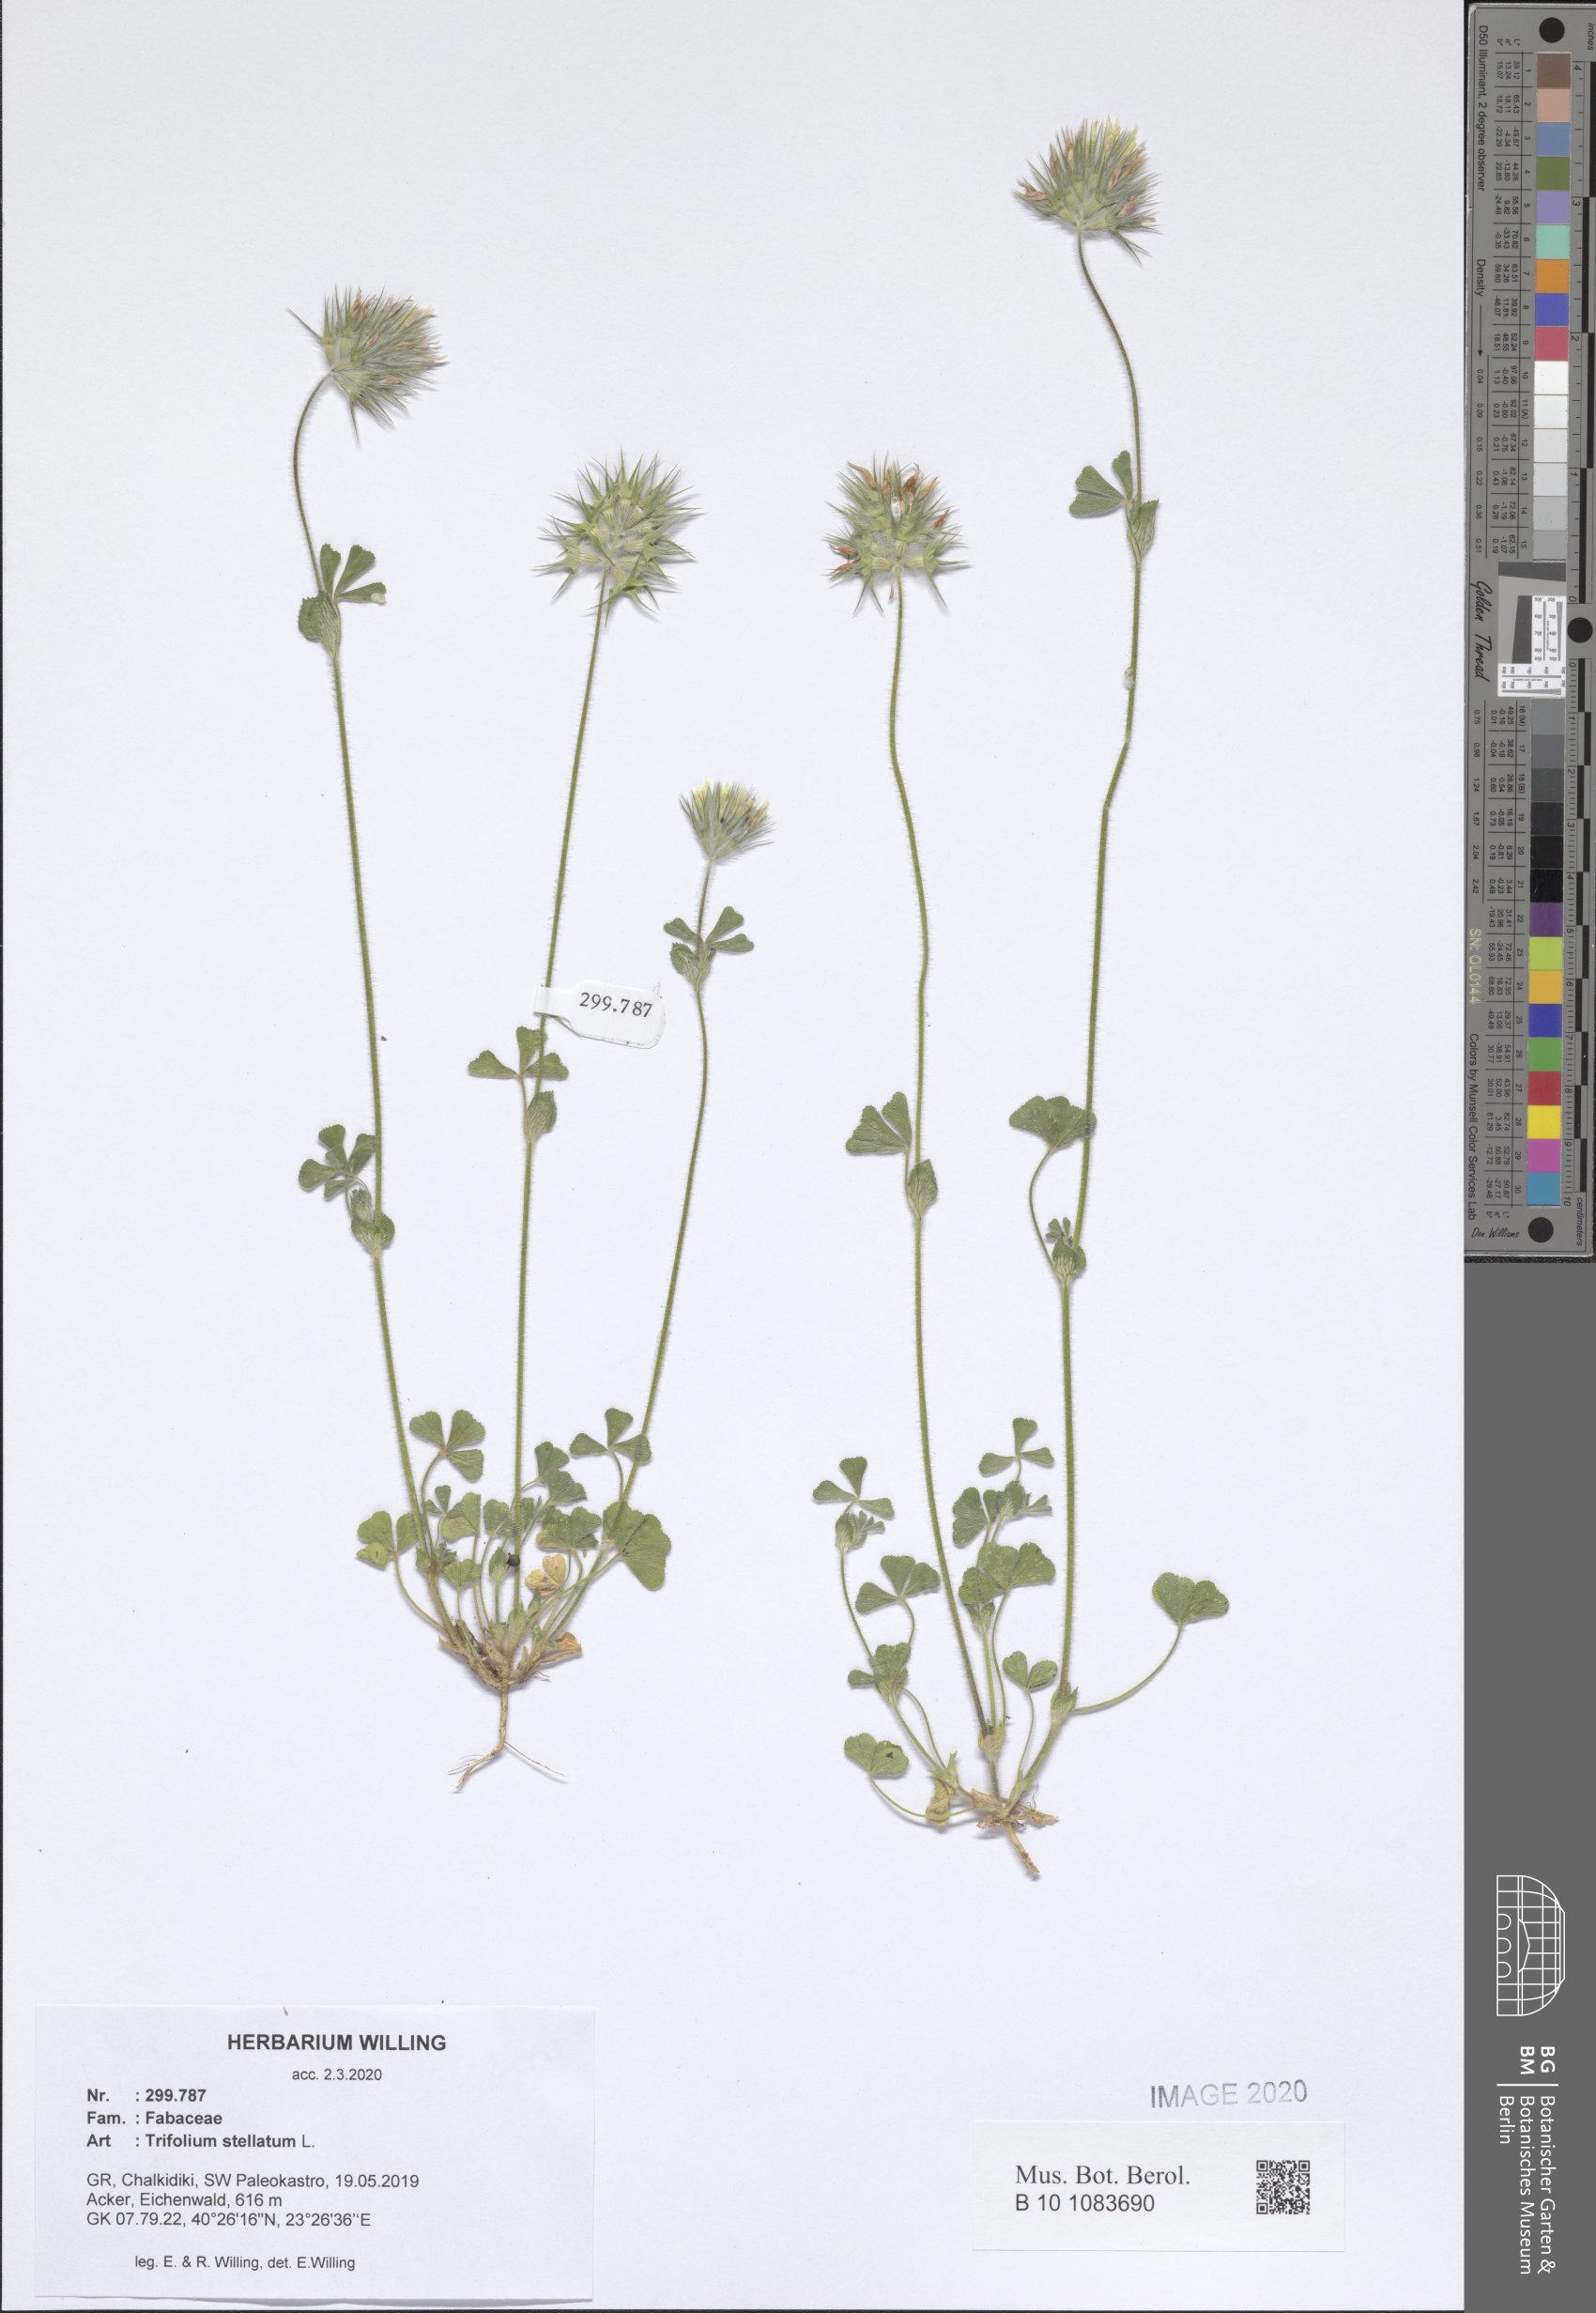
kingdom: Plantae
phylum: Tracheophyta
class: Magnoliopsida
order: Fabales
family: Fabaceae
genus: Trifolium
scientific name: Trifolium stellatum
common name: Starry clover
